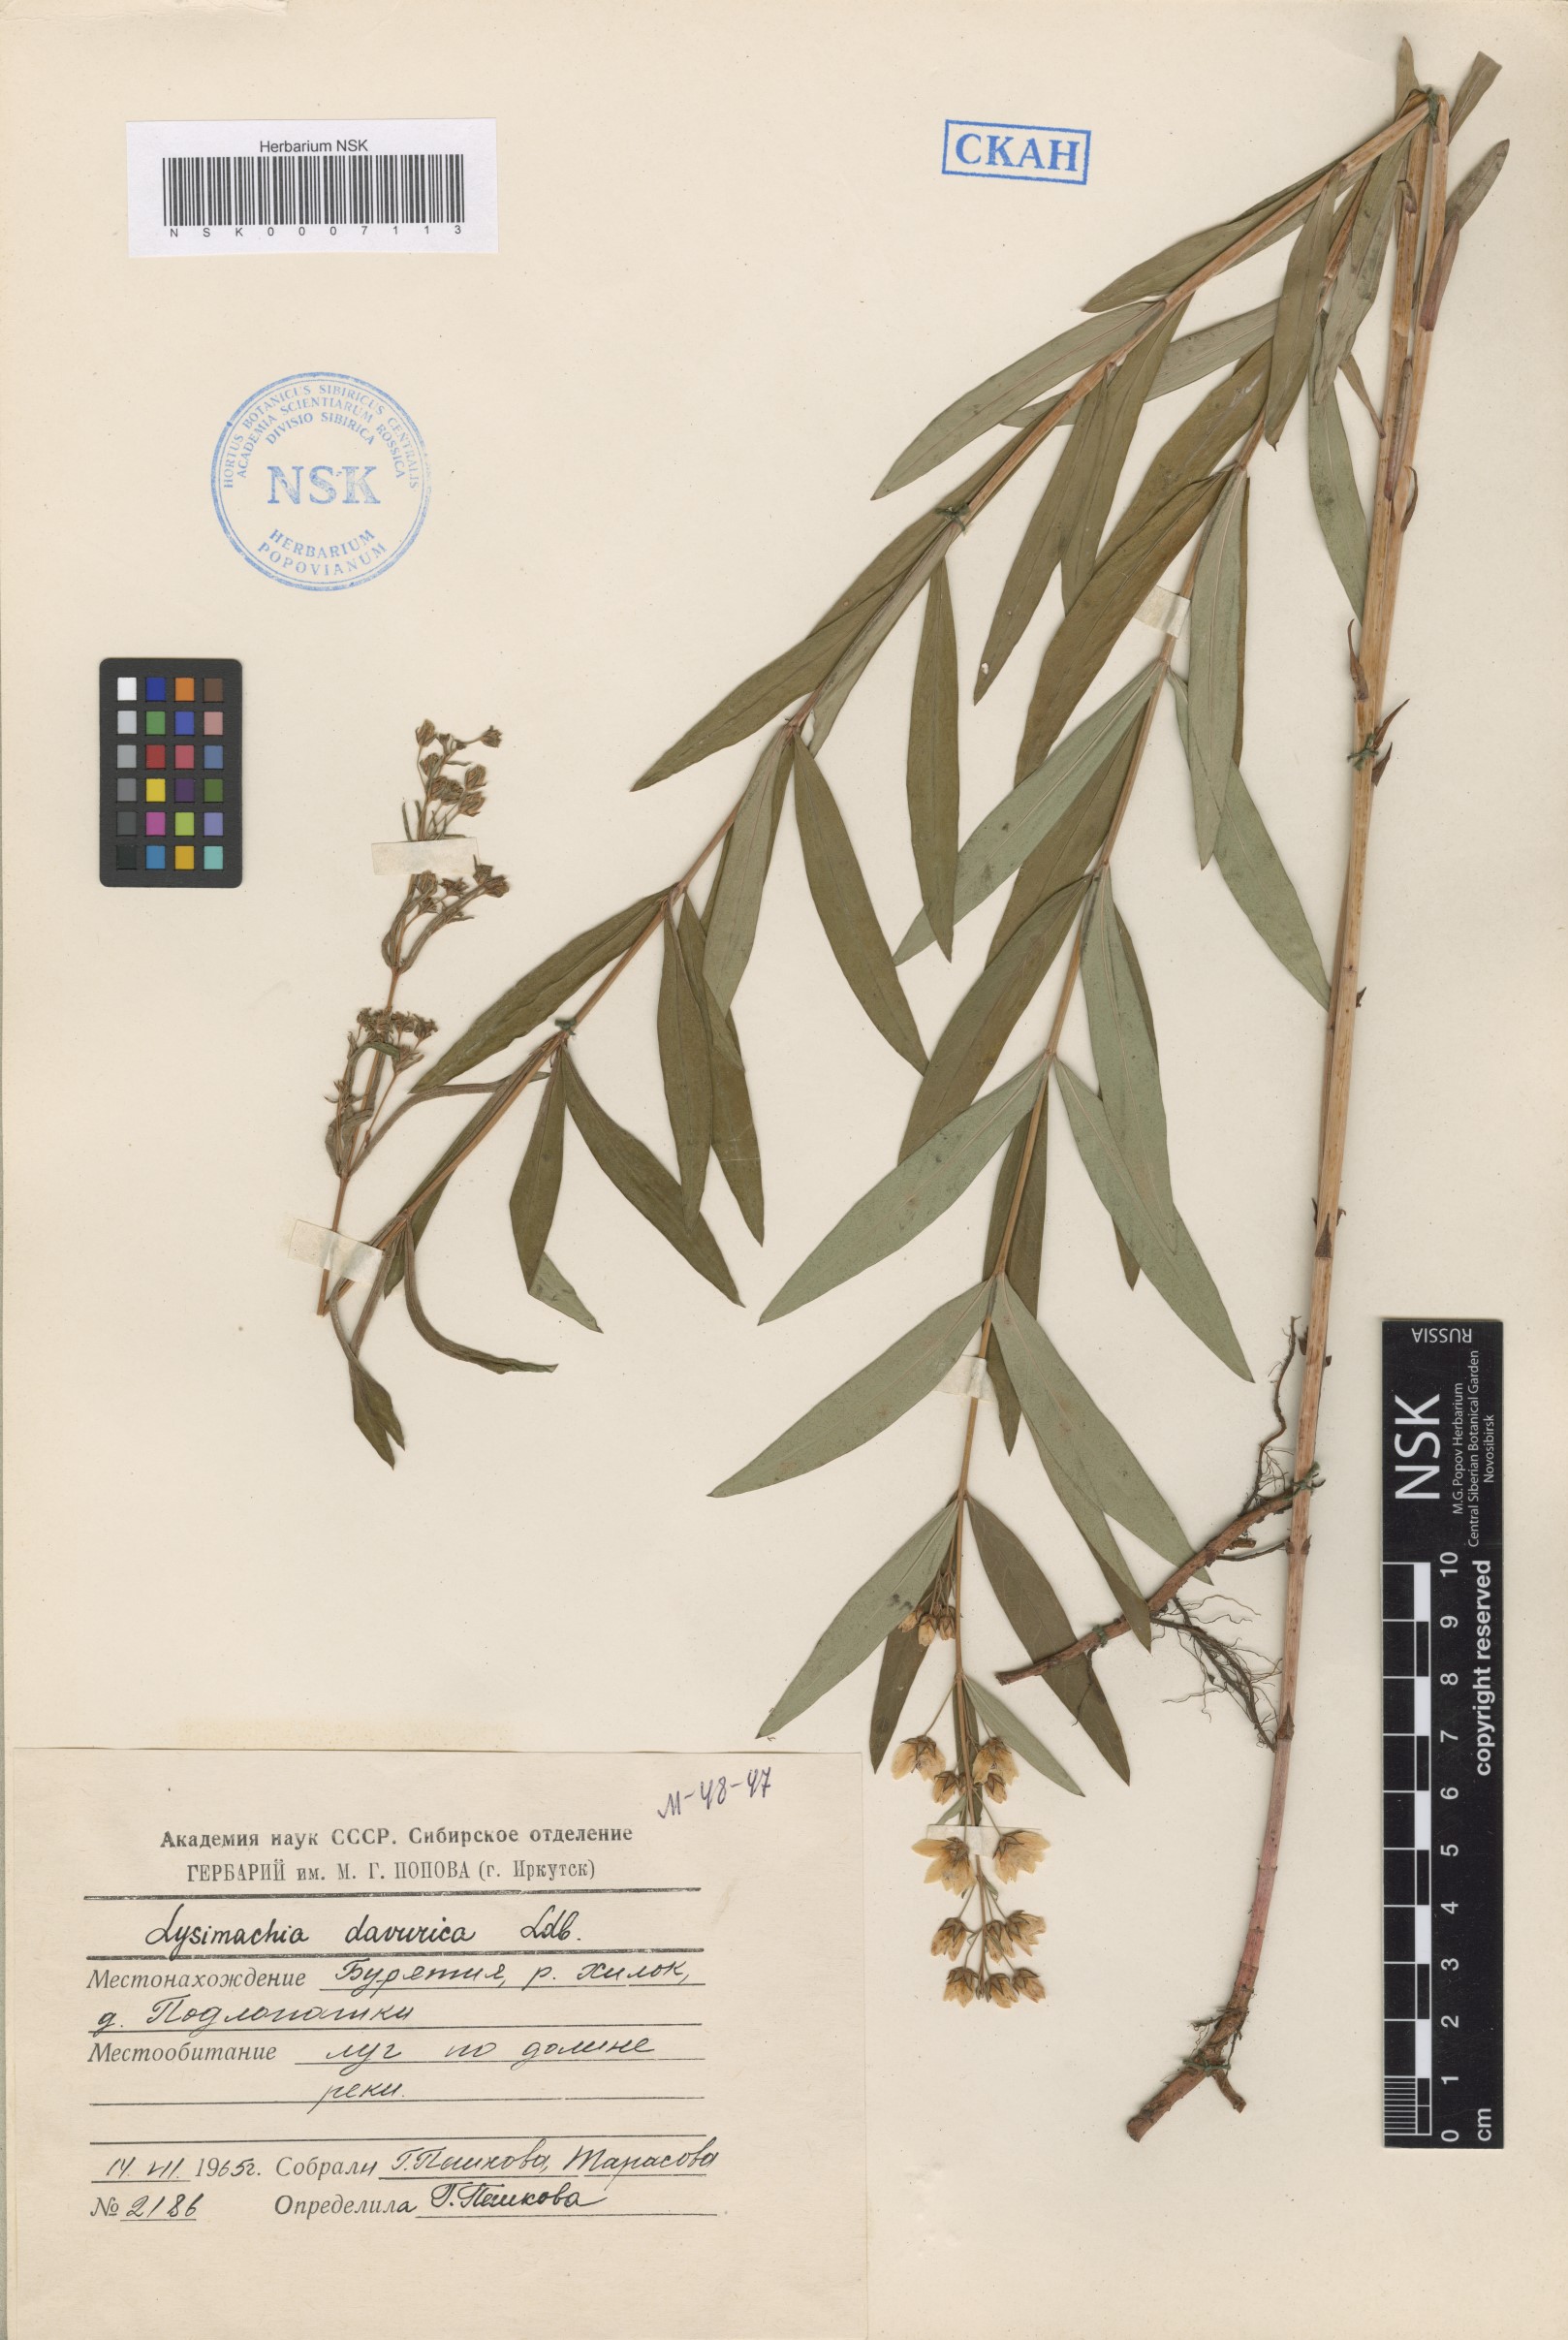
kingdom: Plantae
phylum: Tracheophyta
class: Magnoliopsida
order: Ericales
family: Primulaceae
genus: Lysimachia
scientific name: Lysimachia davurica
